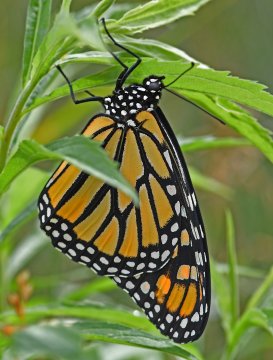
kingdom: Animalia
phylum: Arthropoda
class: Insecta
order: Lepidoptera
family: Nymphalidae
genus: Danaus
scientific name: Danaus plexippus
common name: Monarch
